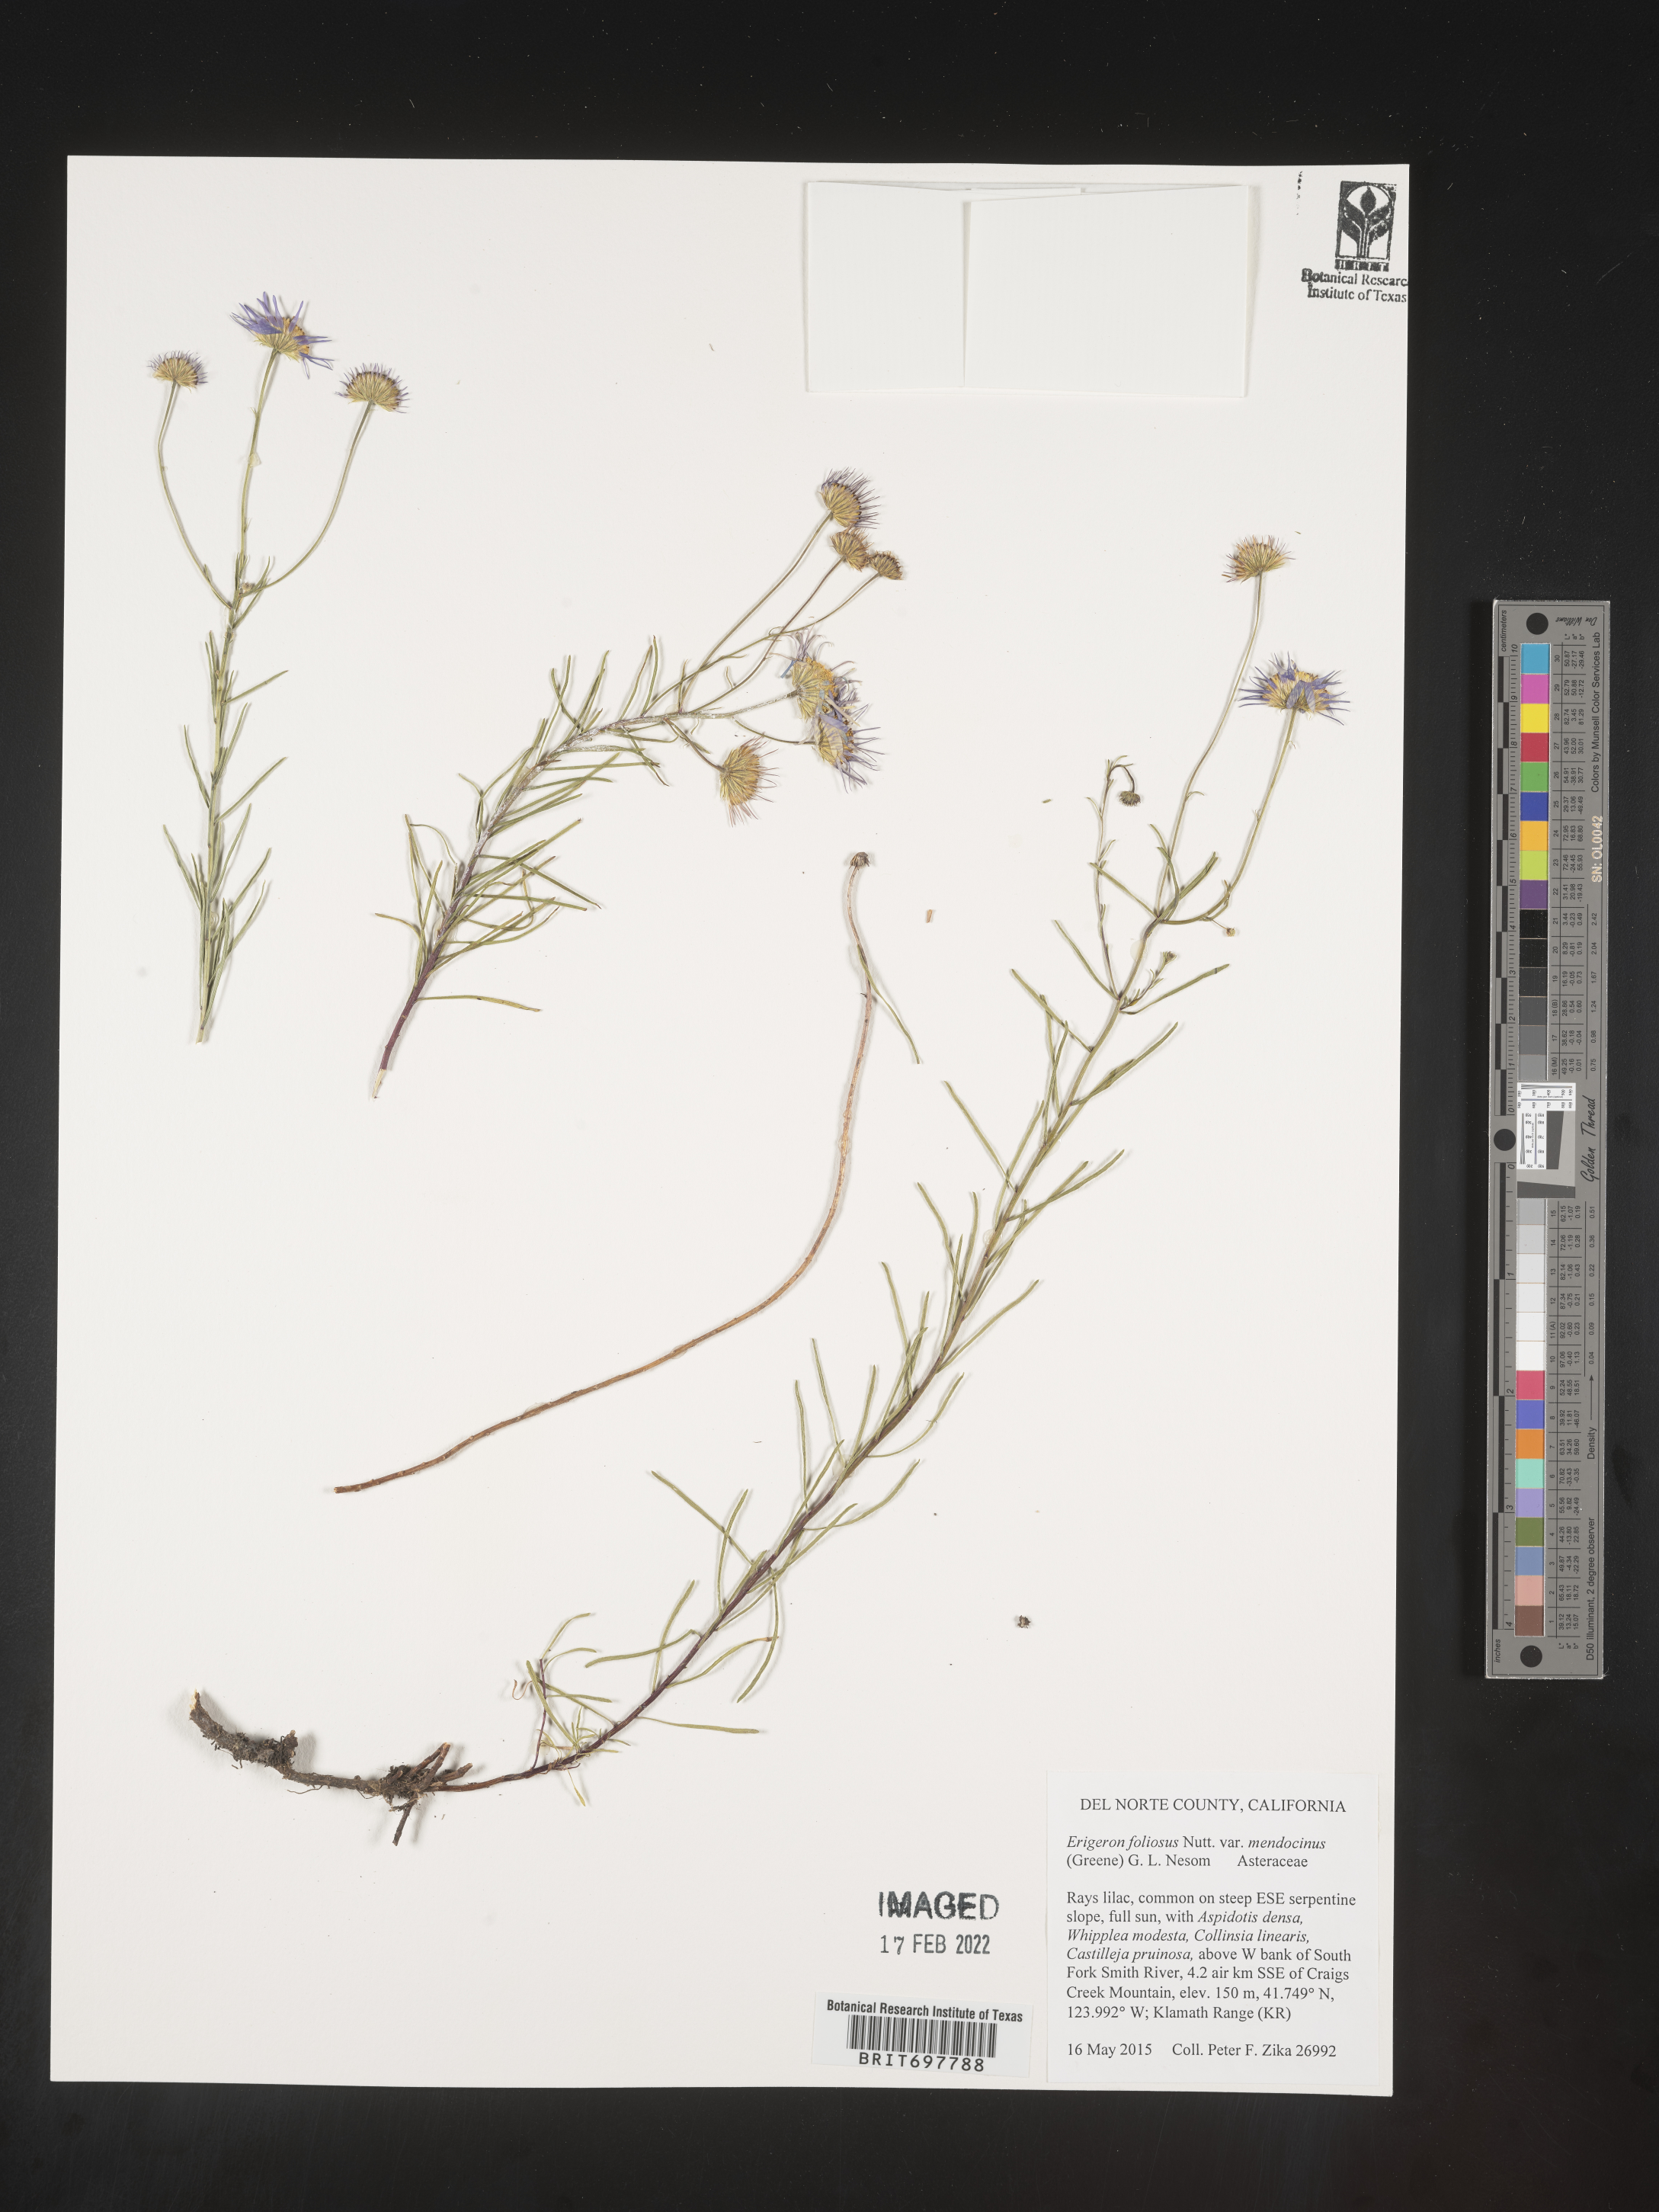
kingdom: Plantae
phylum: Tracheophyta
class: Magnoliopsida
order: Asterales
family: Asteraceae
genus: Erigeron
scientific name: Erigeron foliosus
